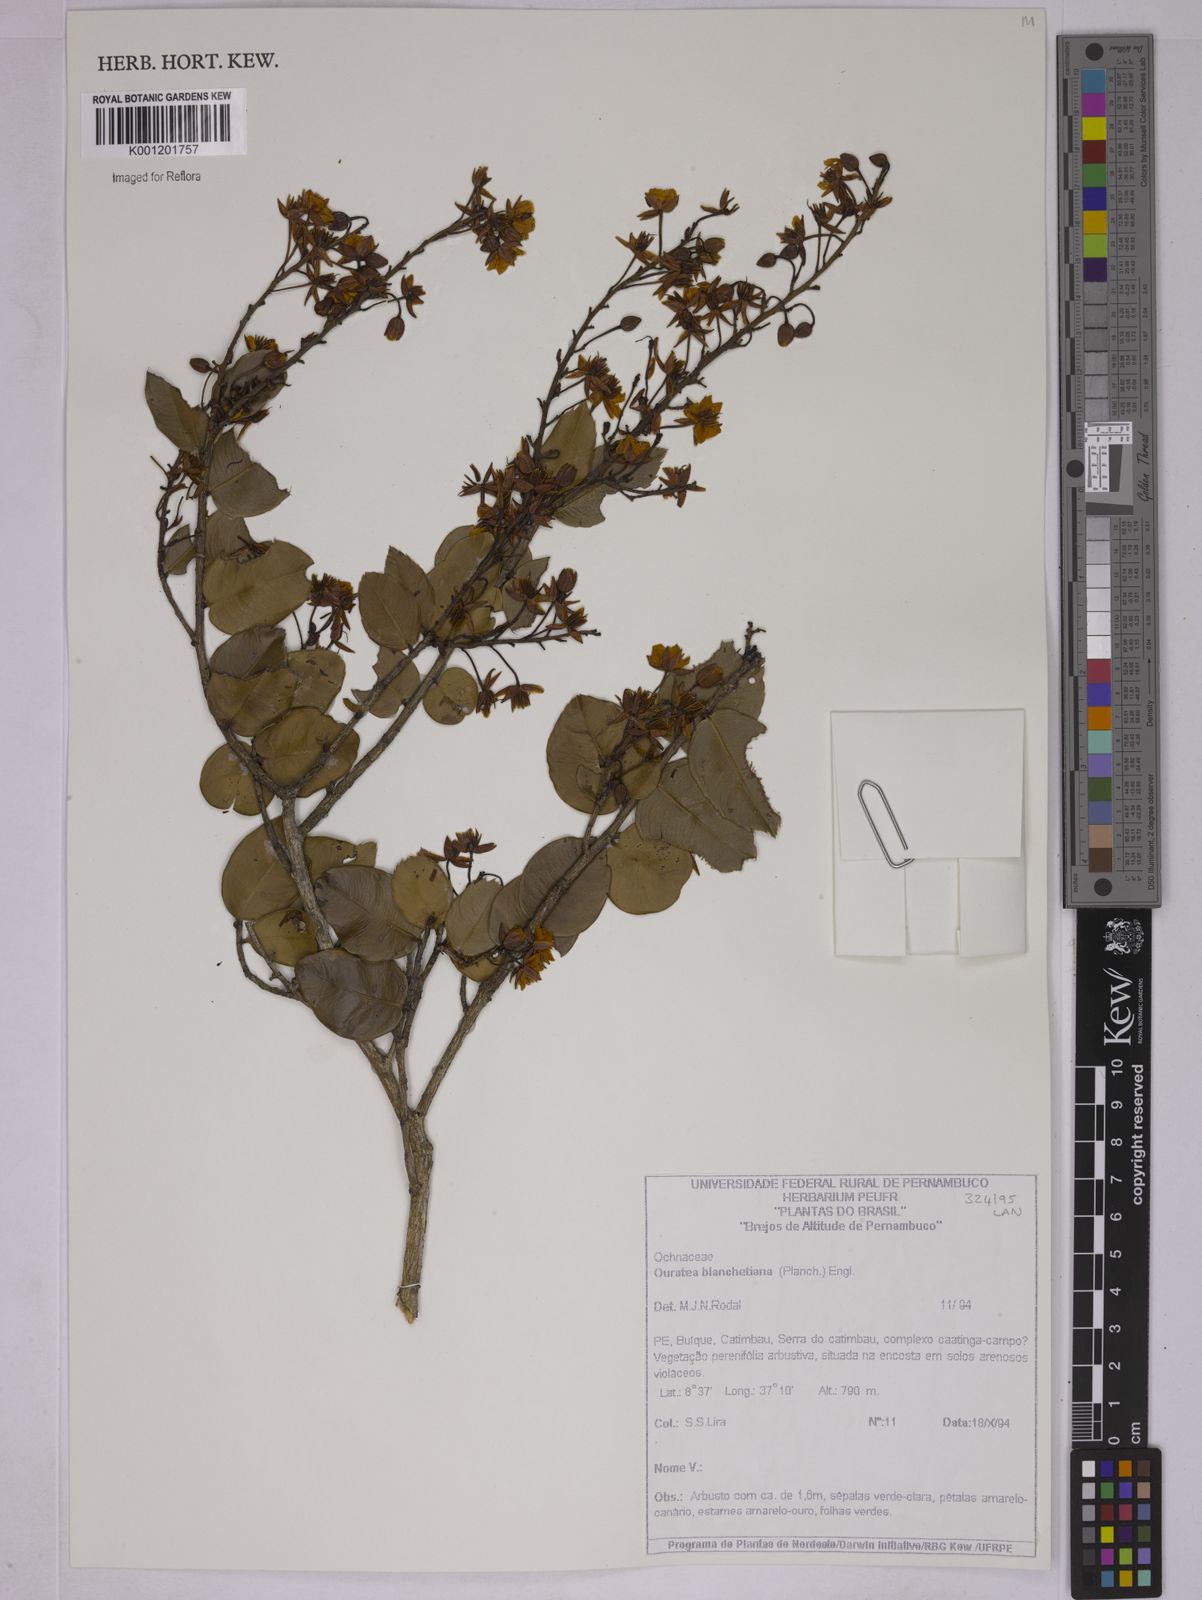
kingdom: Plantae
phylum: Tracheophyta
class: Magnoliopsida
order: Malpighiales
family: Ochnaceae
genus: Ouratea
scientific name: Ouratea blanchetiana
